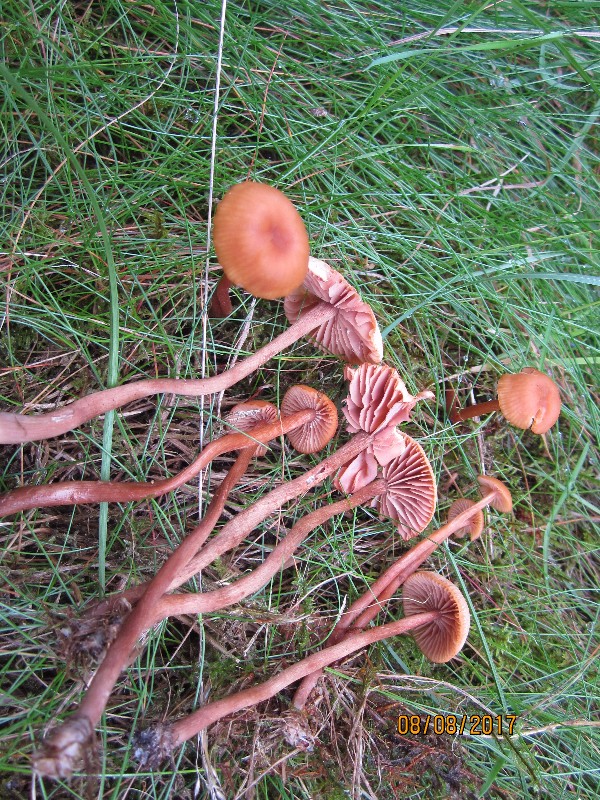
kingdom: Fungi
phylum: Basidiomycota
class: Agaricomycetes
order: Agaricales
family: Hydnangiaceae
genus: Laccaria
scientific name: Laccaria bicolor
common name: tvefarvet ametysthat
